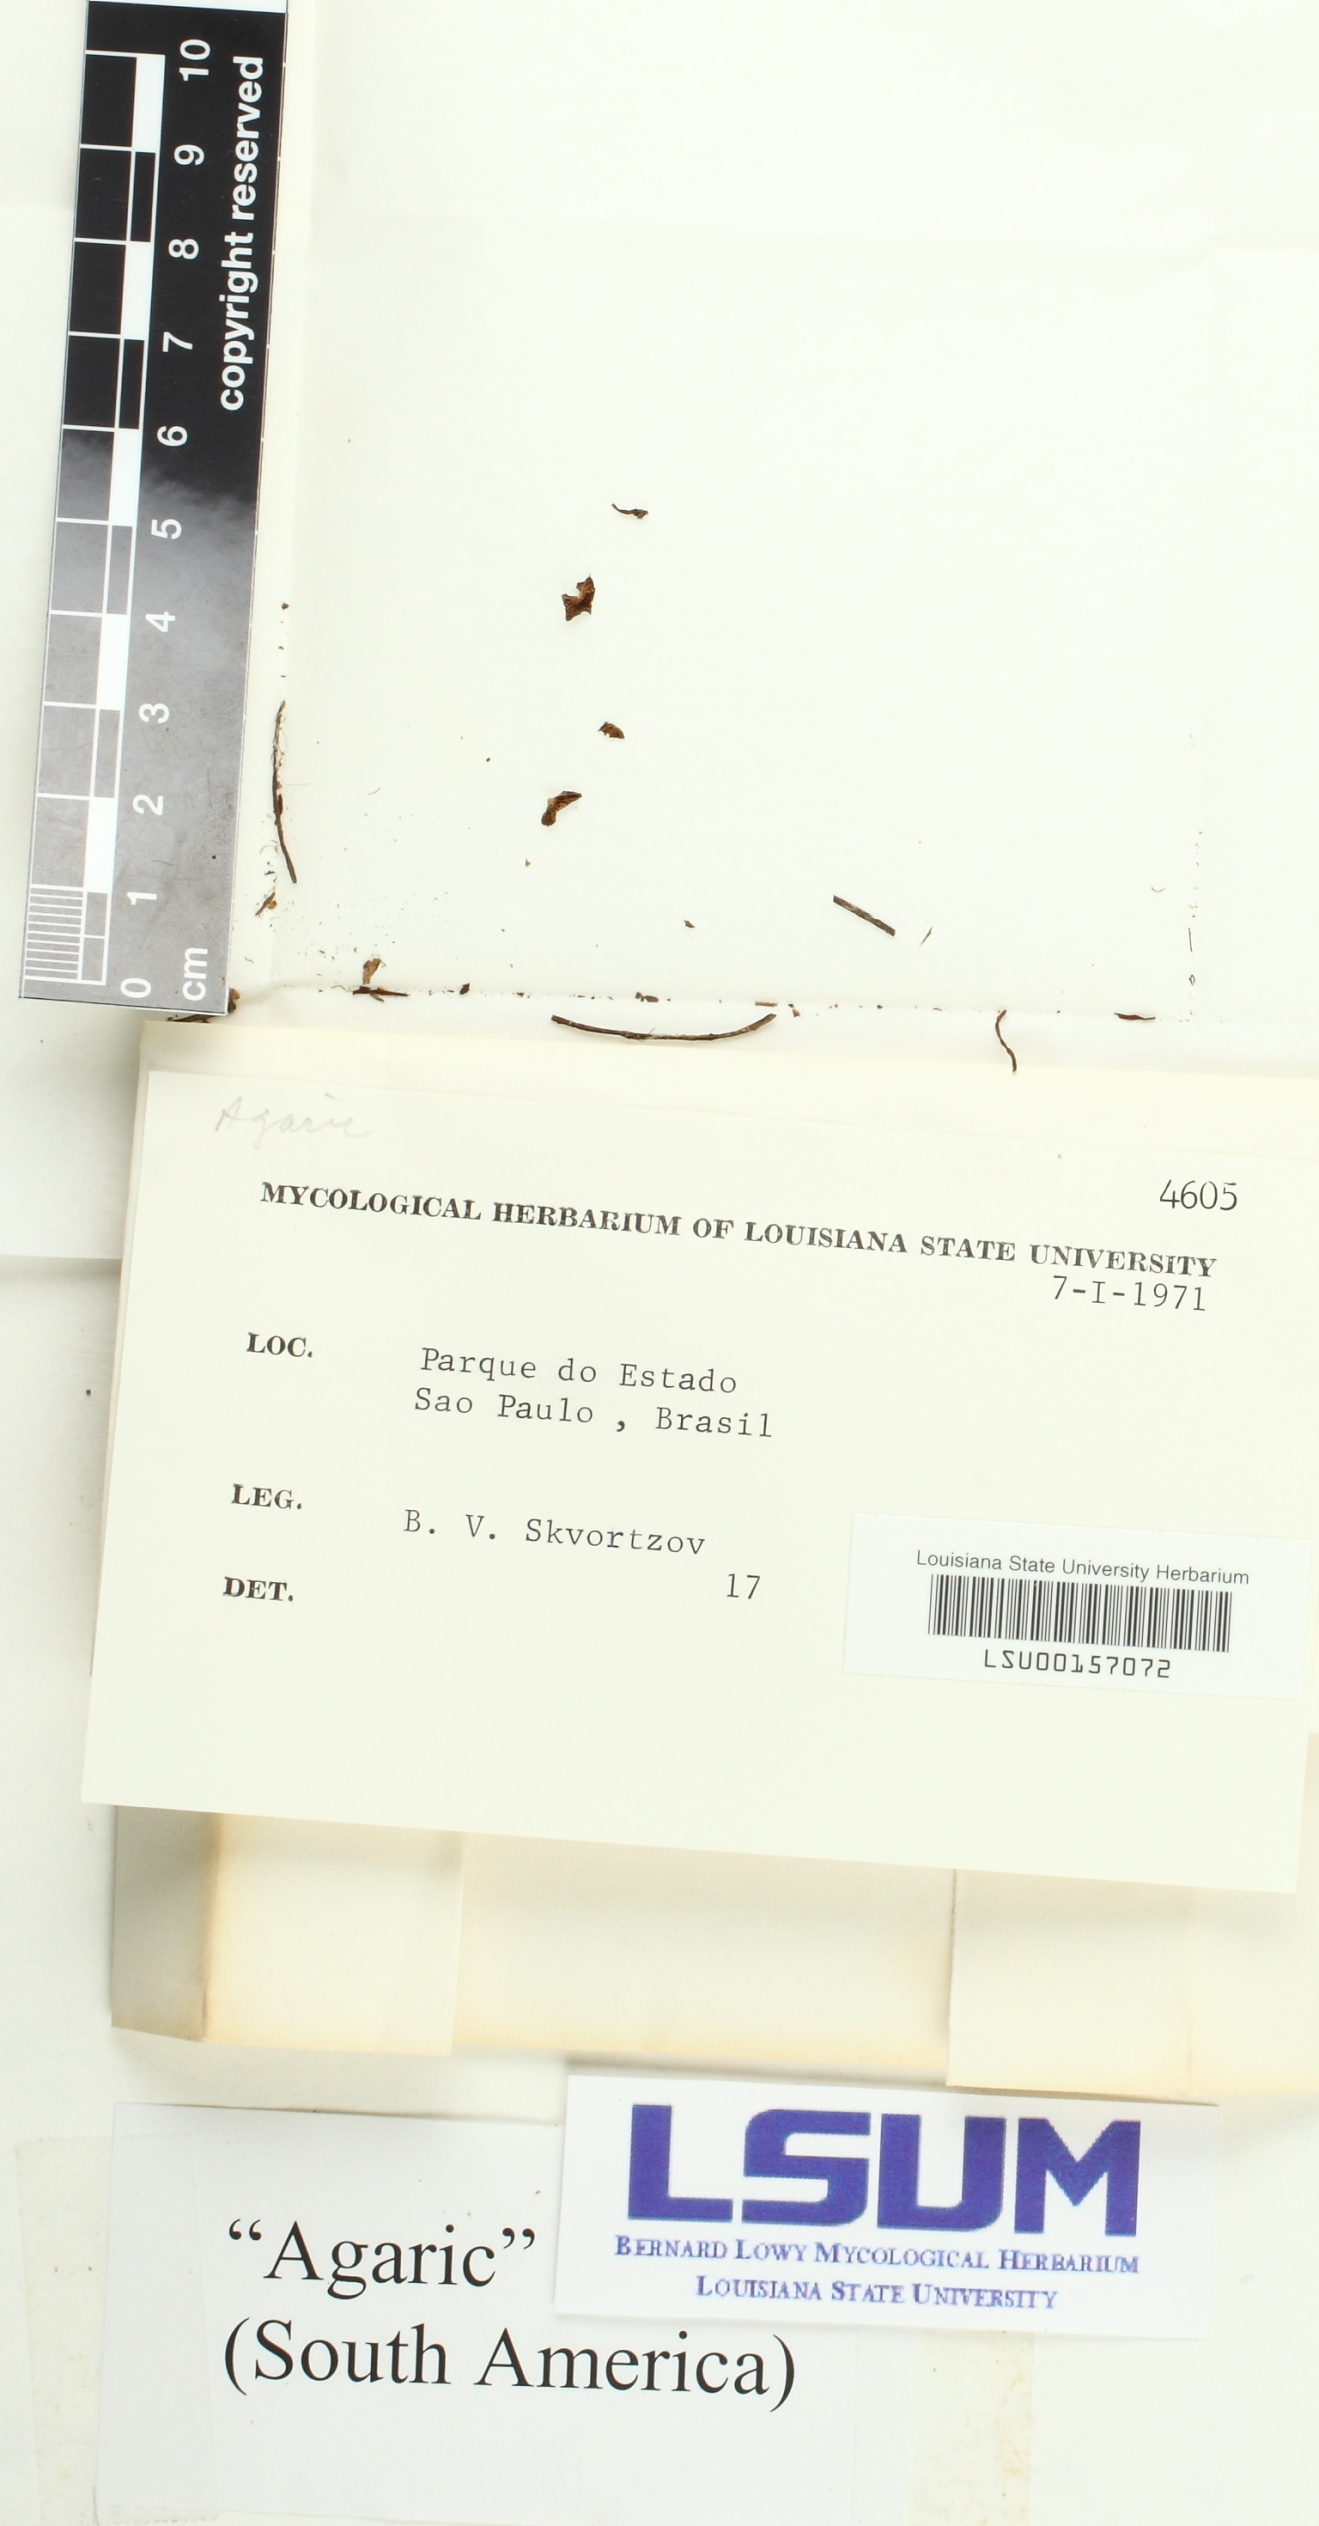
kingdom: Fungi
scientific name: Fungi
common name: Fungi
